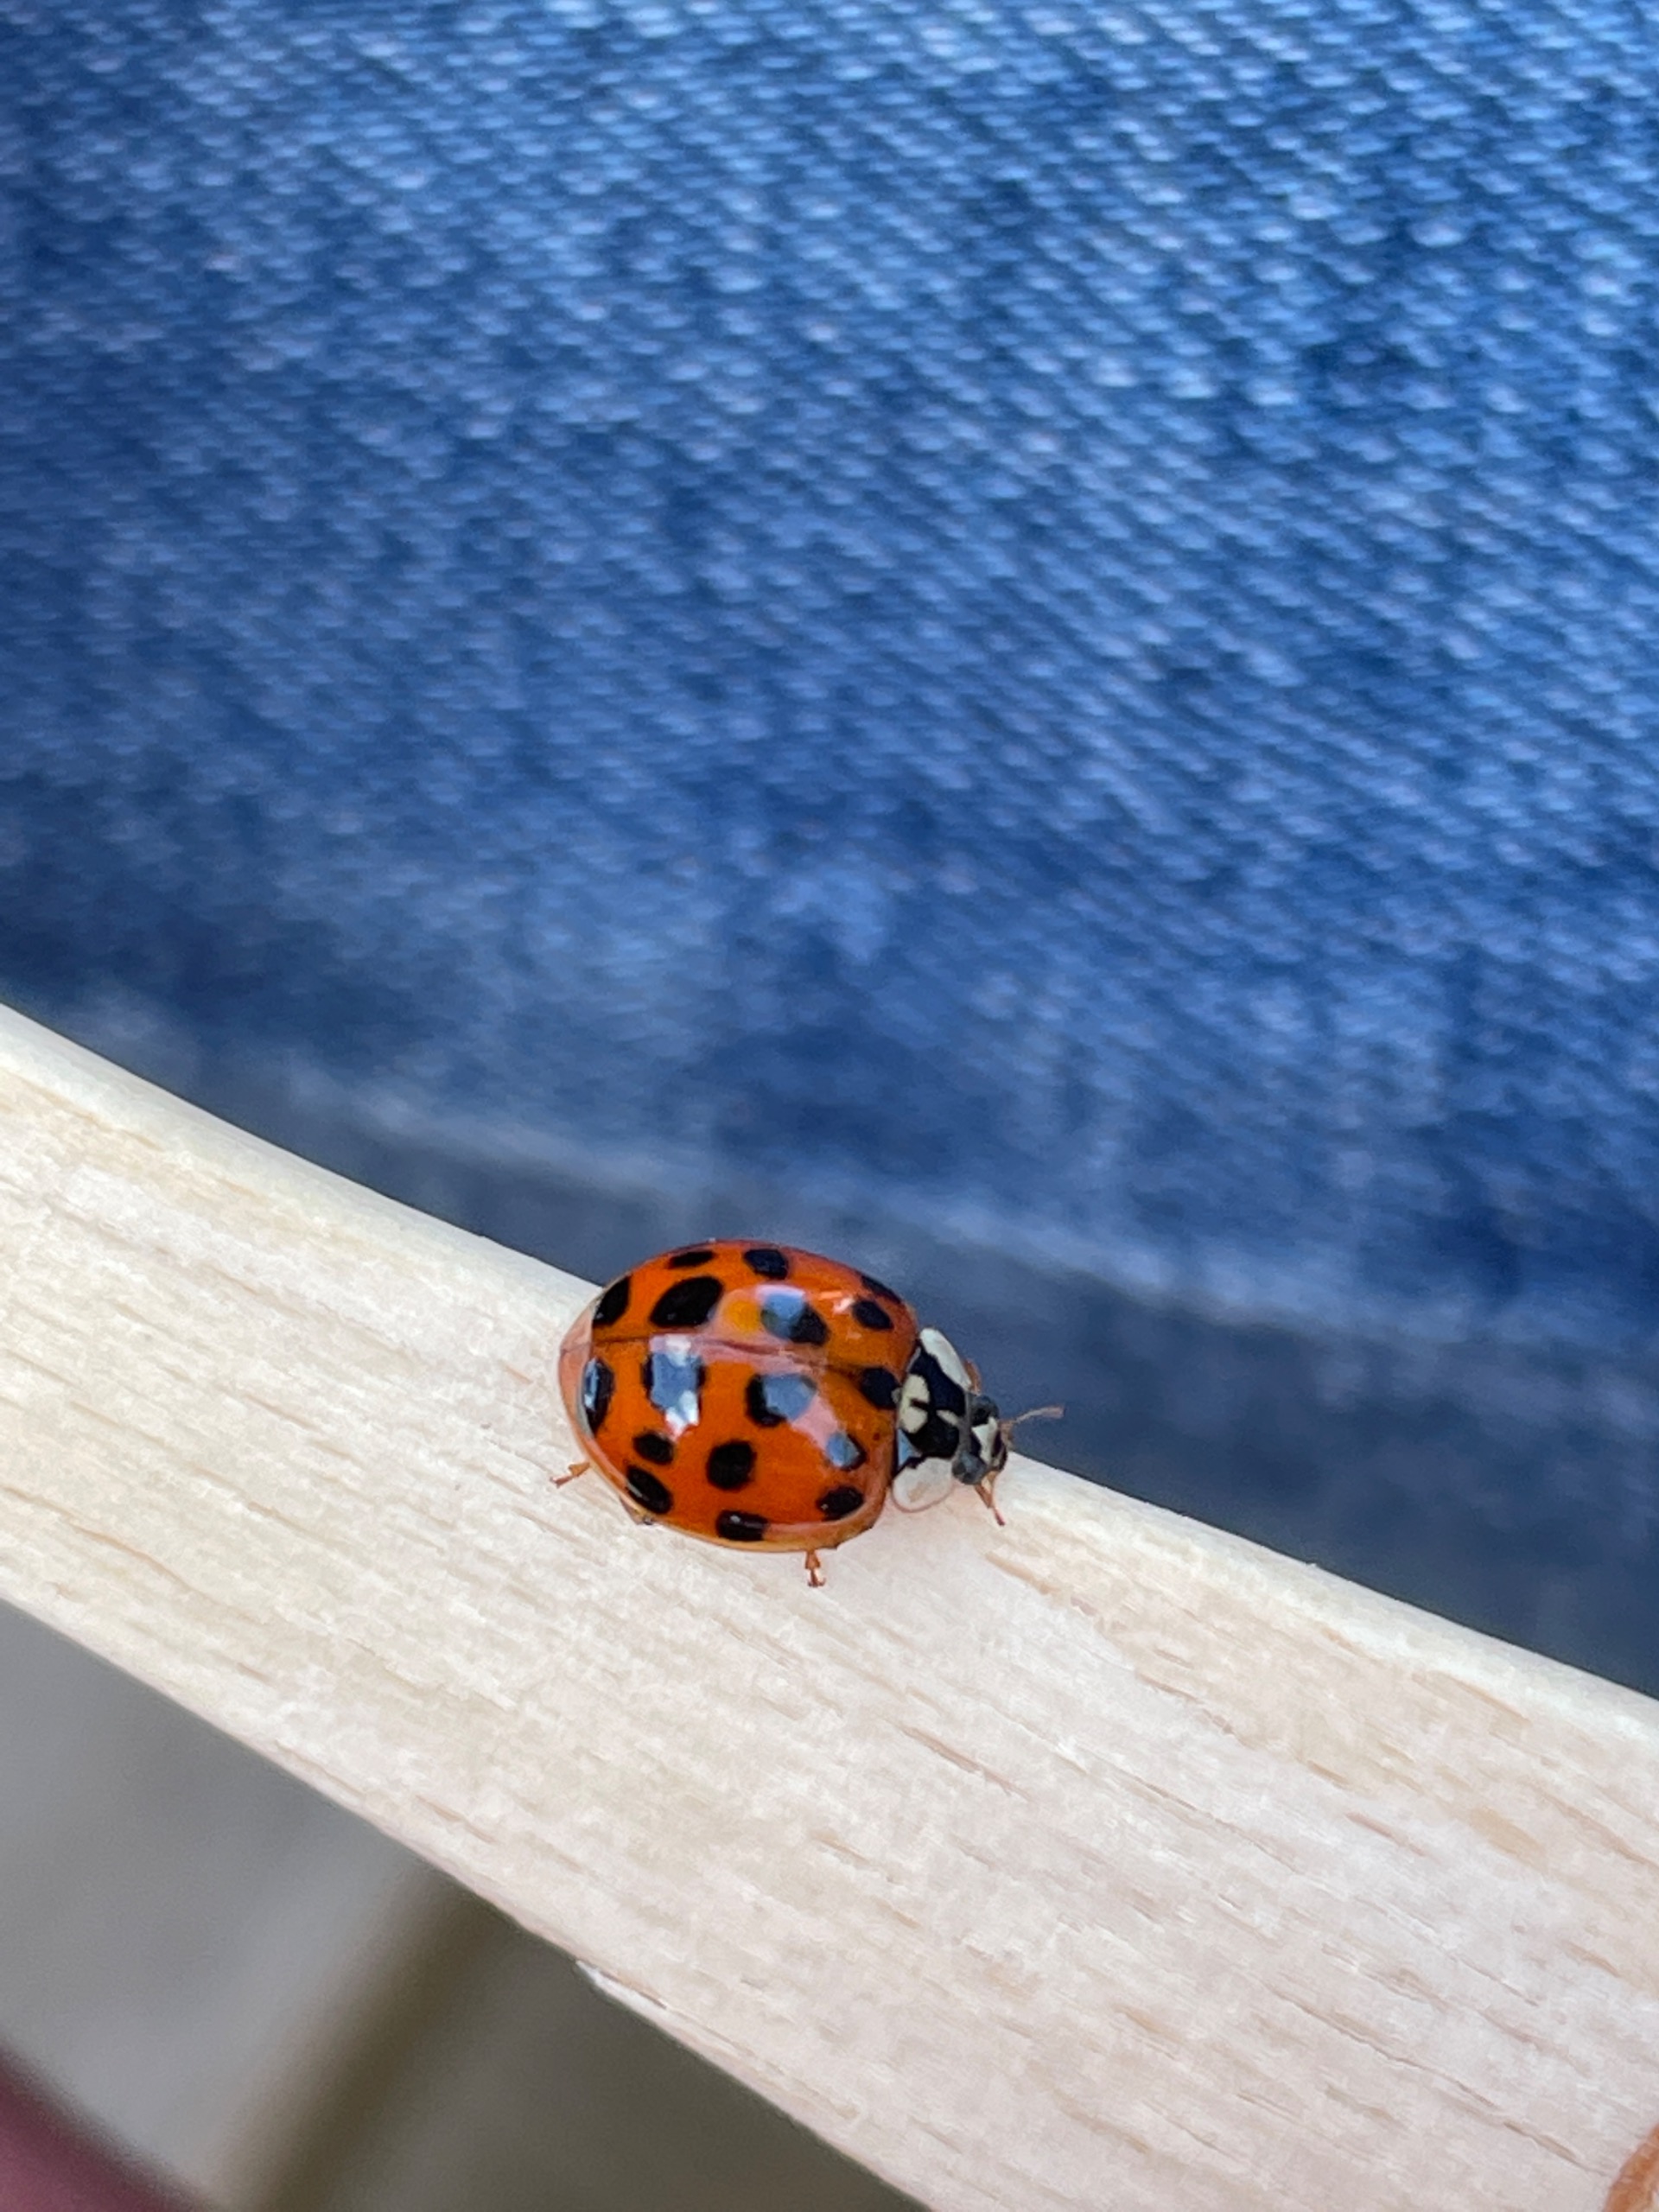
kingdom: Animalia
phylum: Arthropoda
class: Insecta
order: Coleoptera
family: Coccinellidae
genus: Harmonia
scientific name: Harmonia axyridis
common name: Harlekinmariehøne
